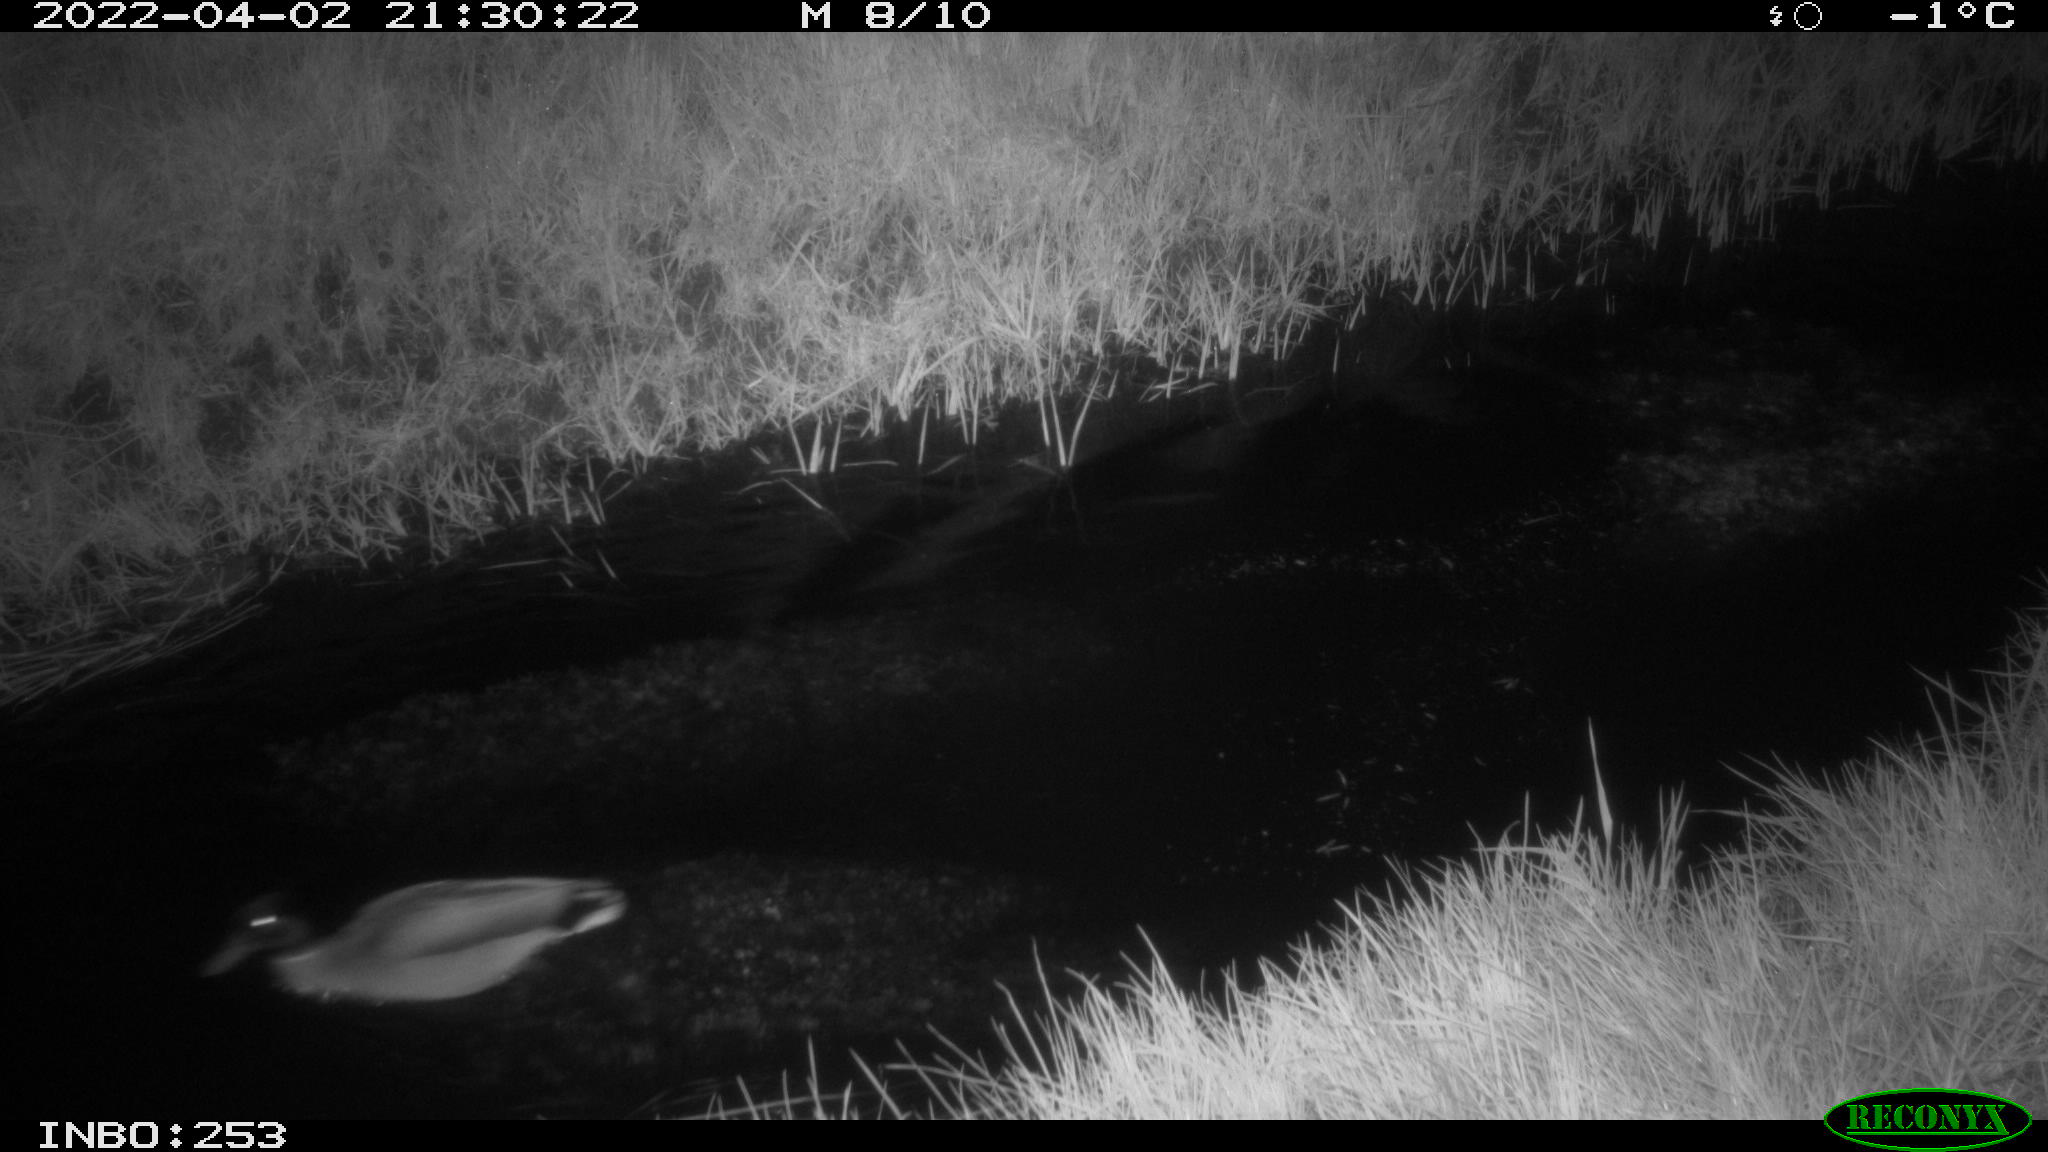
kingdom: Animalia
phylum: Chordata
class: Aves
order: Anseriformes
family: Anatidae
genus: Anas
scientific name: Anas platyrhynchos
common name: Mallard
